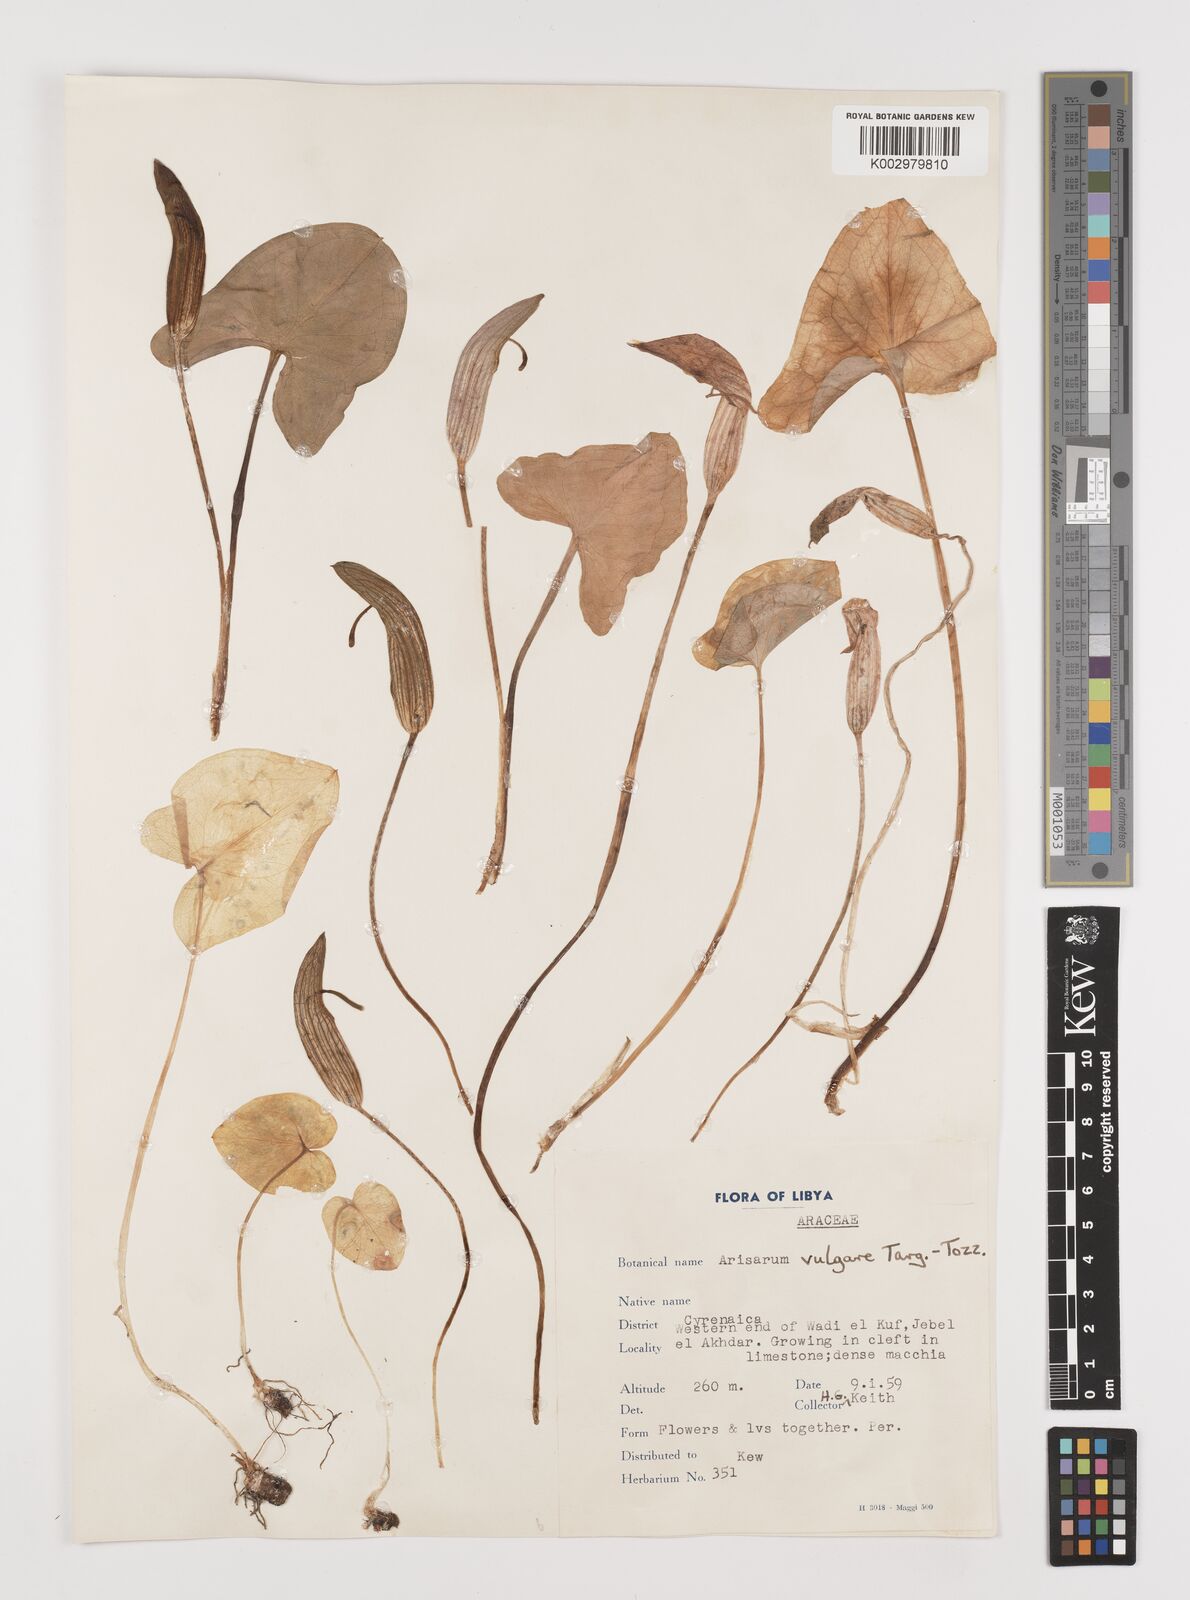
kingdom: Plantae
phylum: Tracheophyta
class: Liliopsida
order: Alismatales
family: Araceae
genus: Arisarum
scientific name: Arisarum vulgare
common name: Common arisarum
